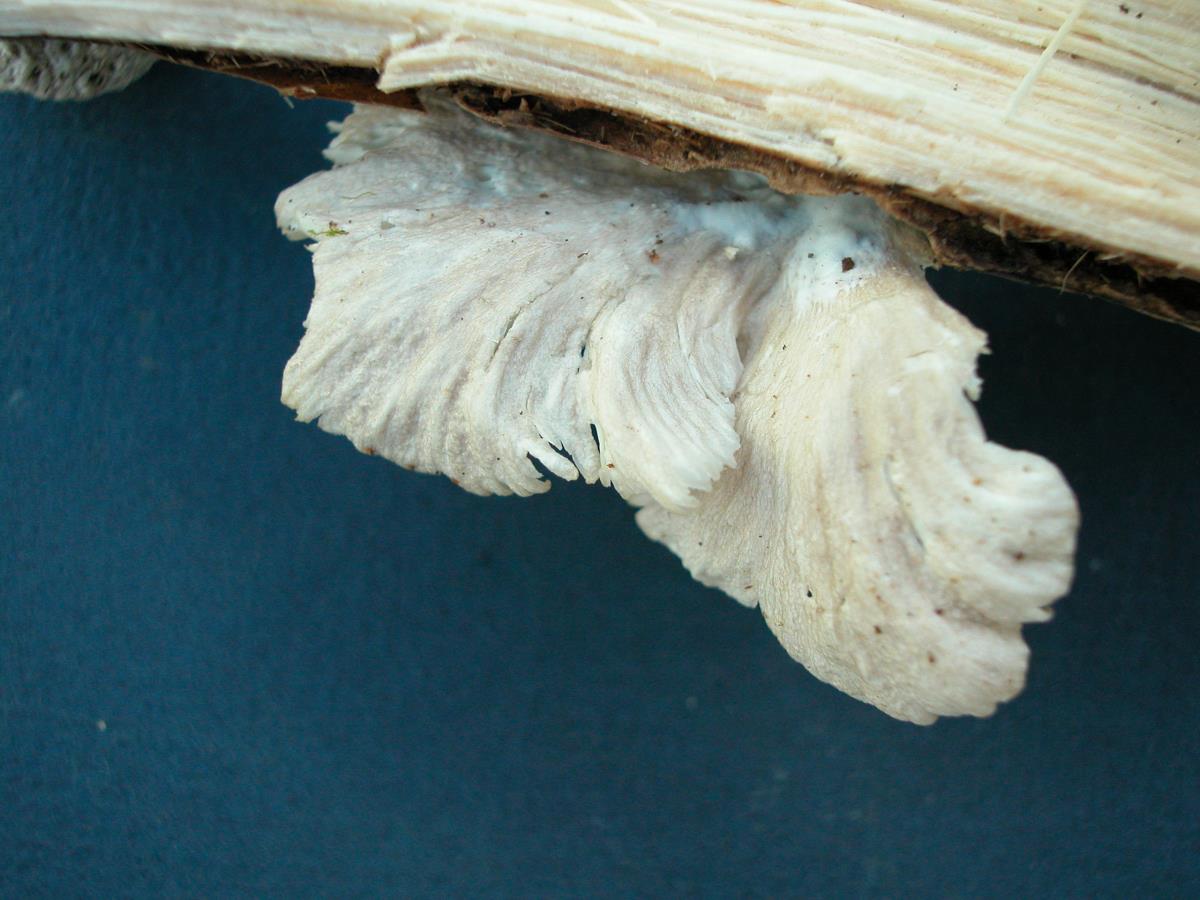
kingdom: Fungi
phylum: Basidiomycota
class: Agaricomycetes
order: Agaricales
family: Pleurotaceae
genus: Pleurotus
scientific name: Pleurotus djamor
